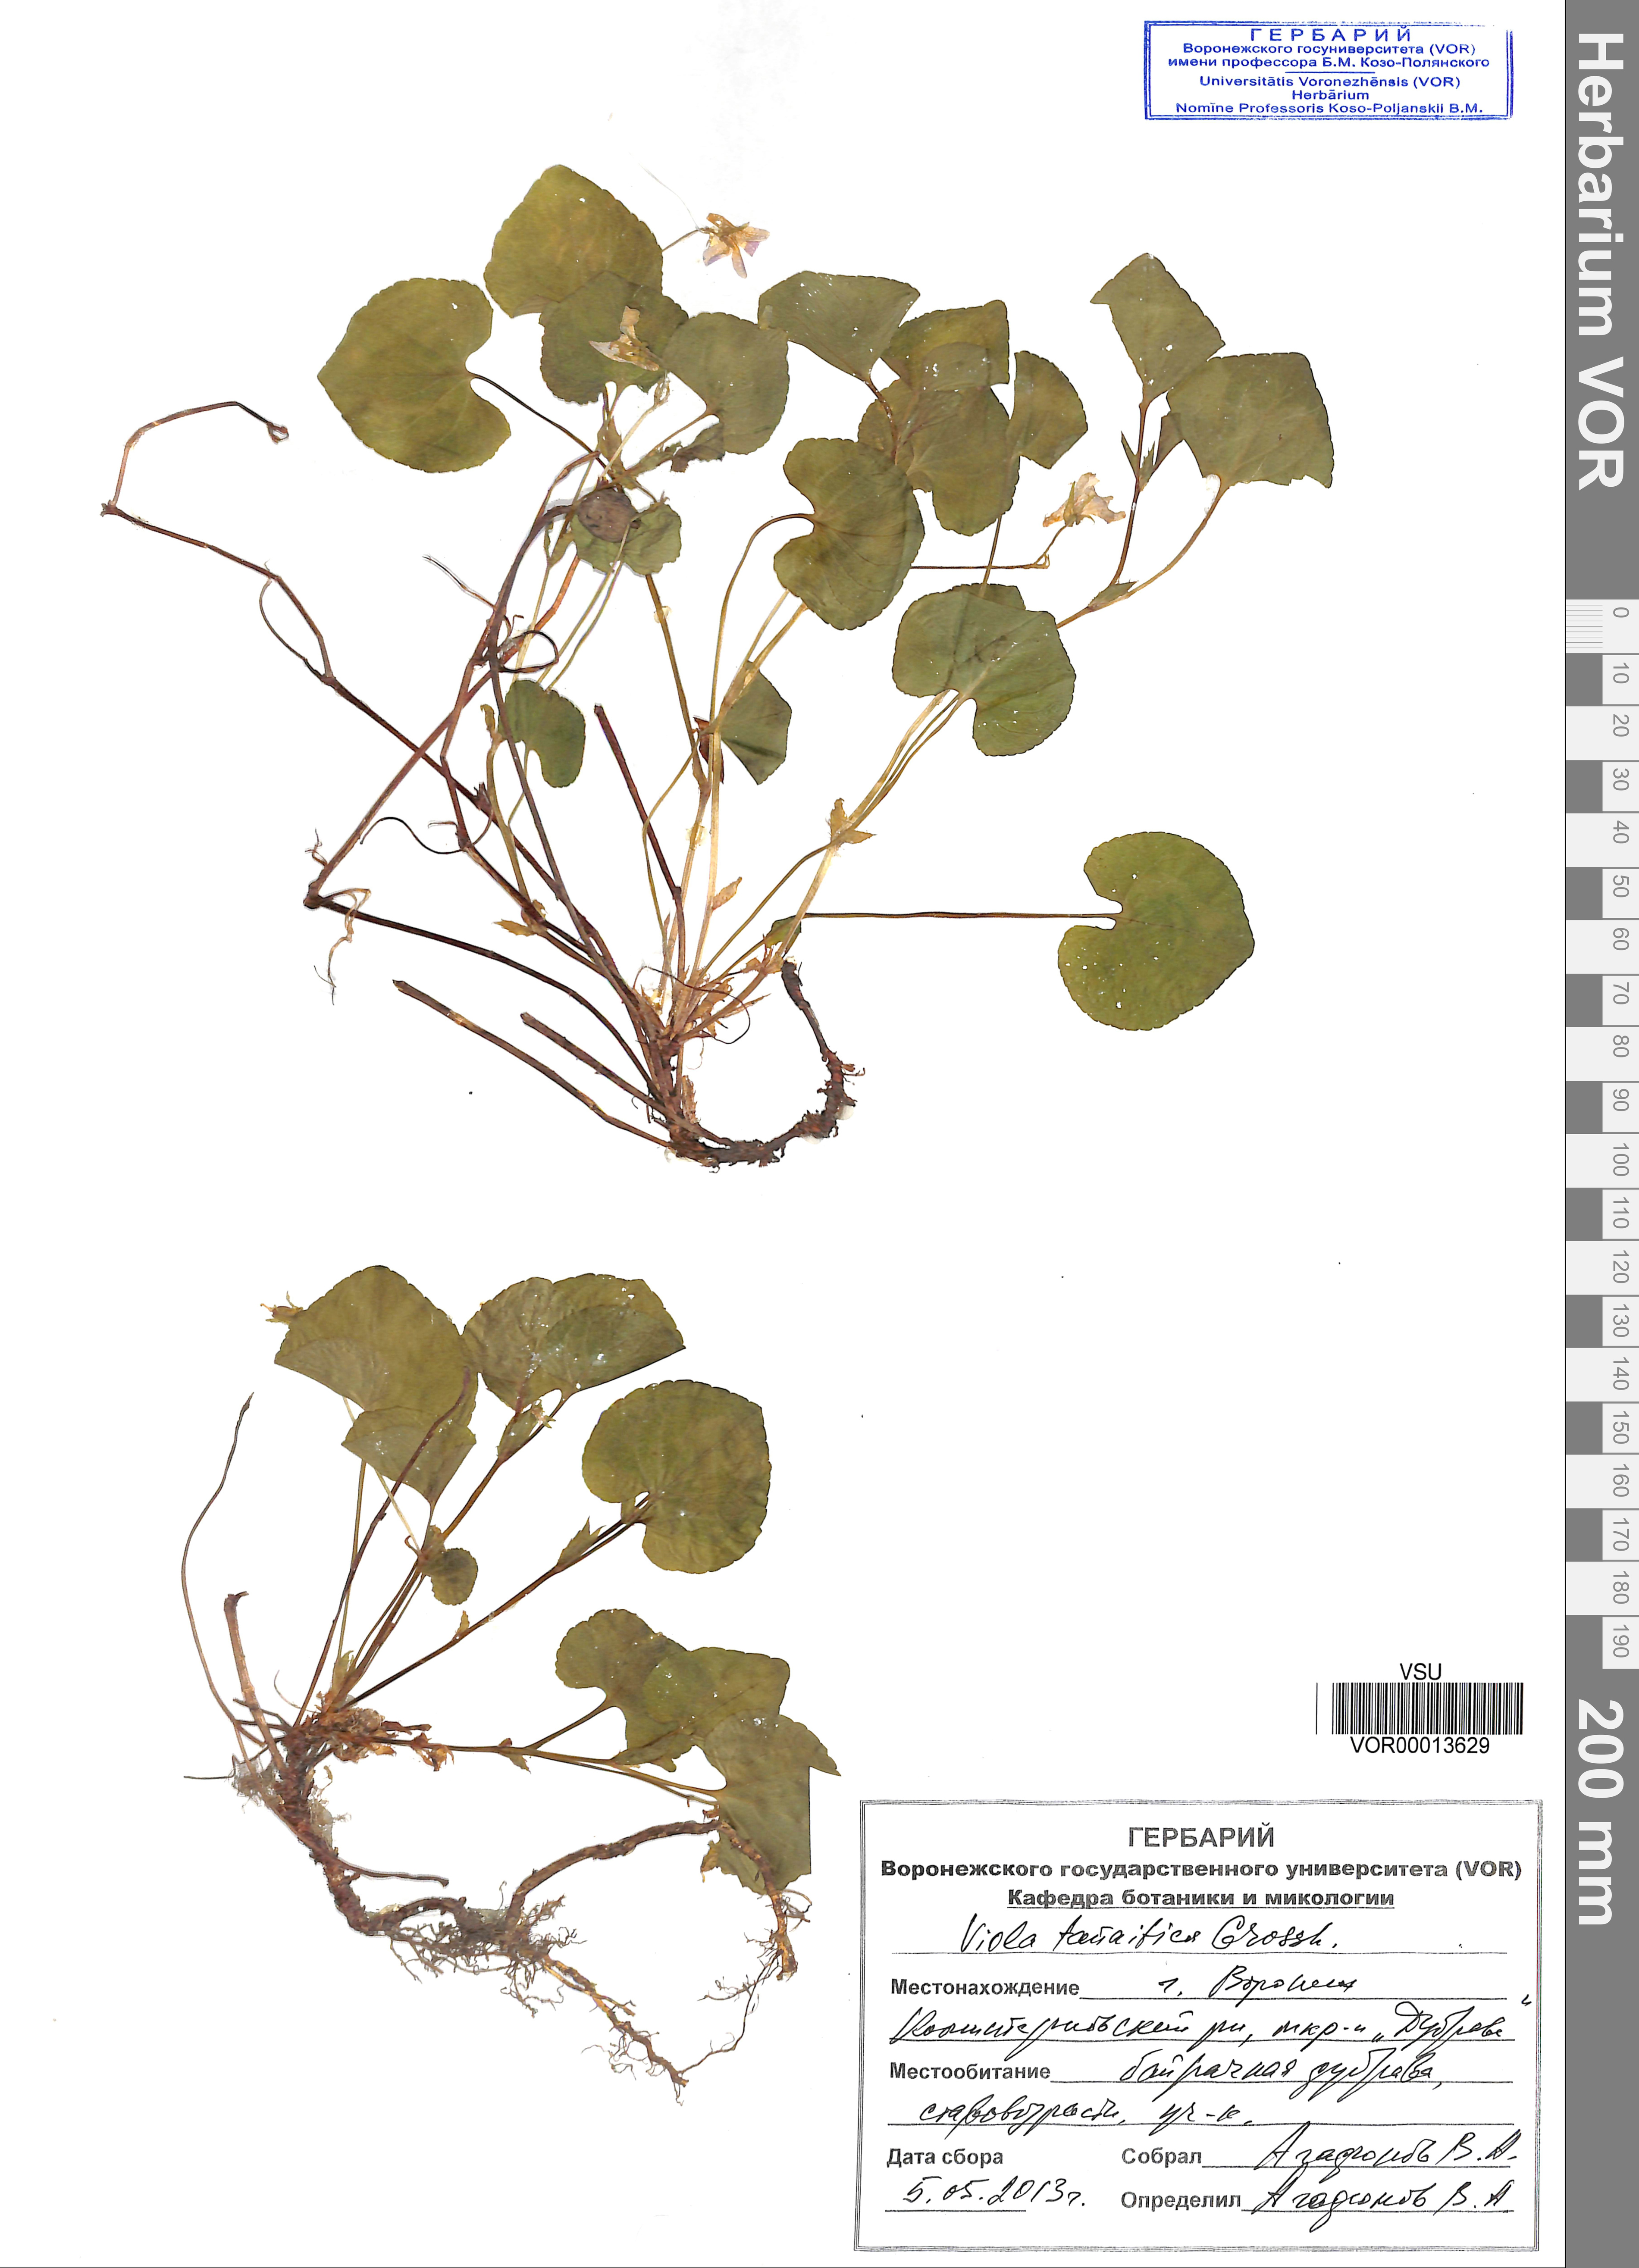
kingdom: Plantae
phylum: Tracheophyta
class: Magnoliopsida
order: Malpighiales
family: Violaceae
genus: Viola
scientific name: Viola tanaitica
